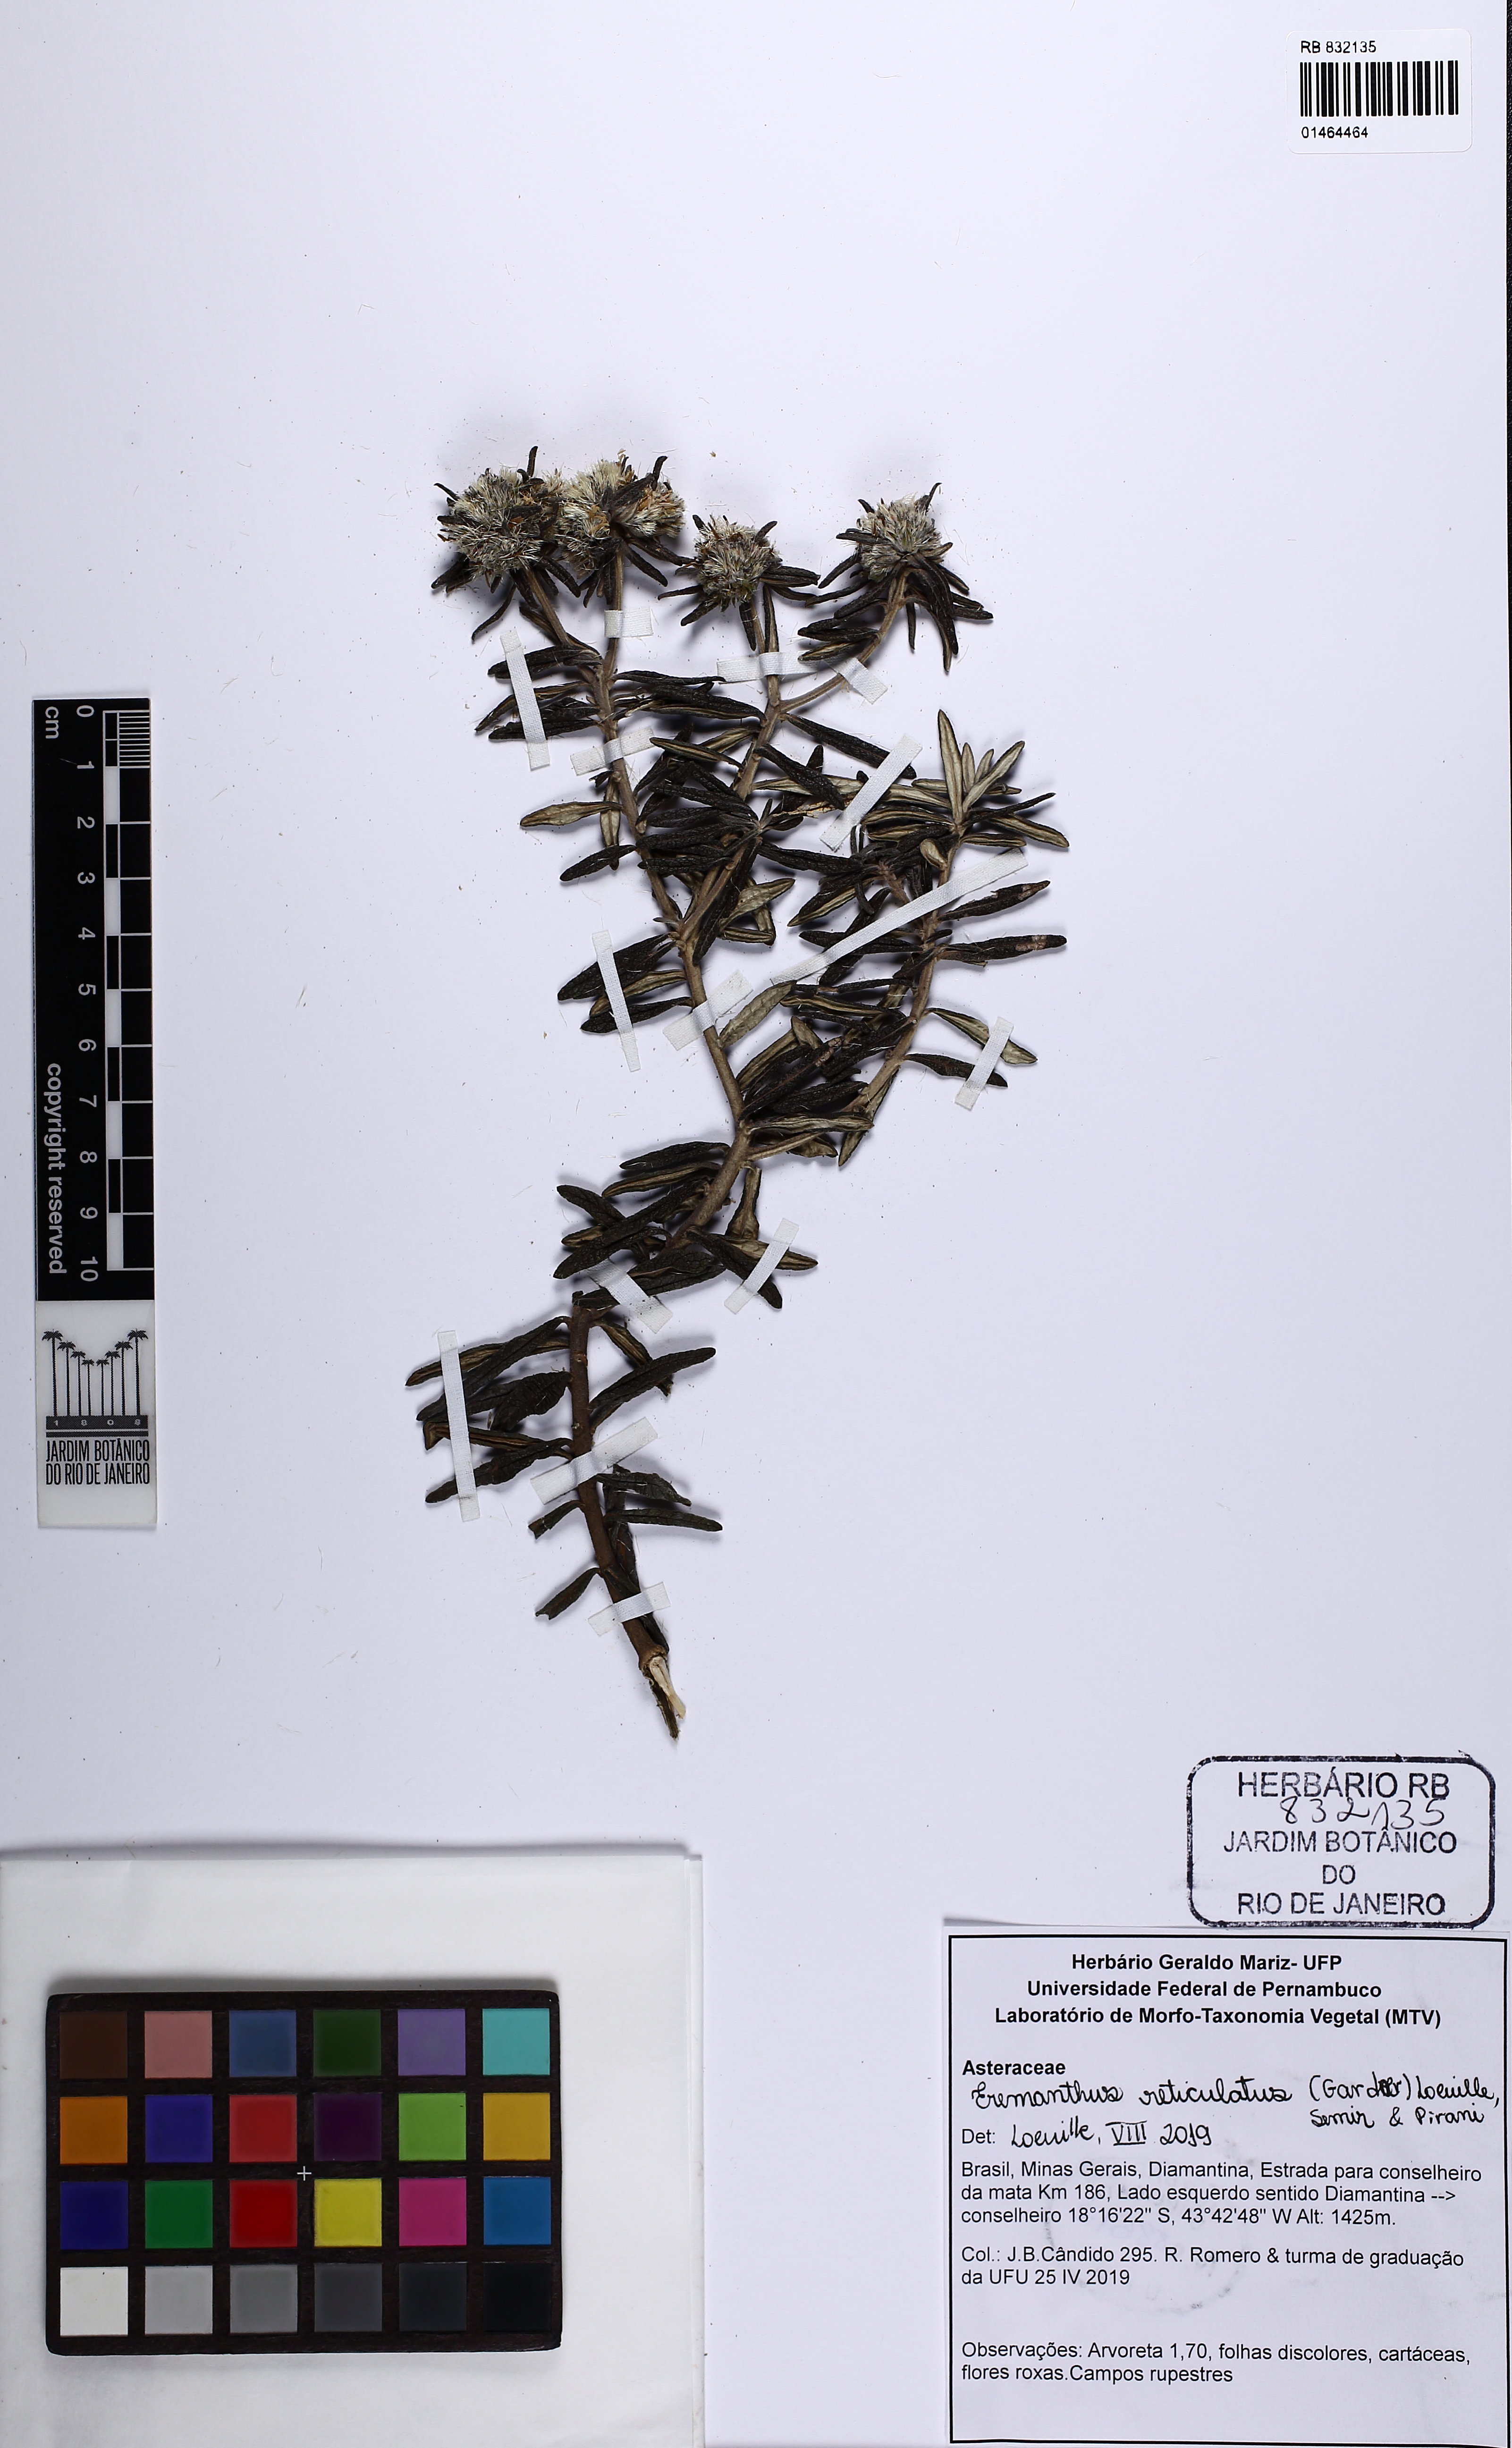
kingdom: Plantae
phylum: Tracheophyta
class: Magnoliopsida
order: Asterales
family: Asteraceae
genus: Eremanthus
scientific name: Eremanthus reticulatus
